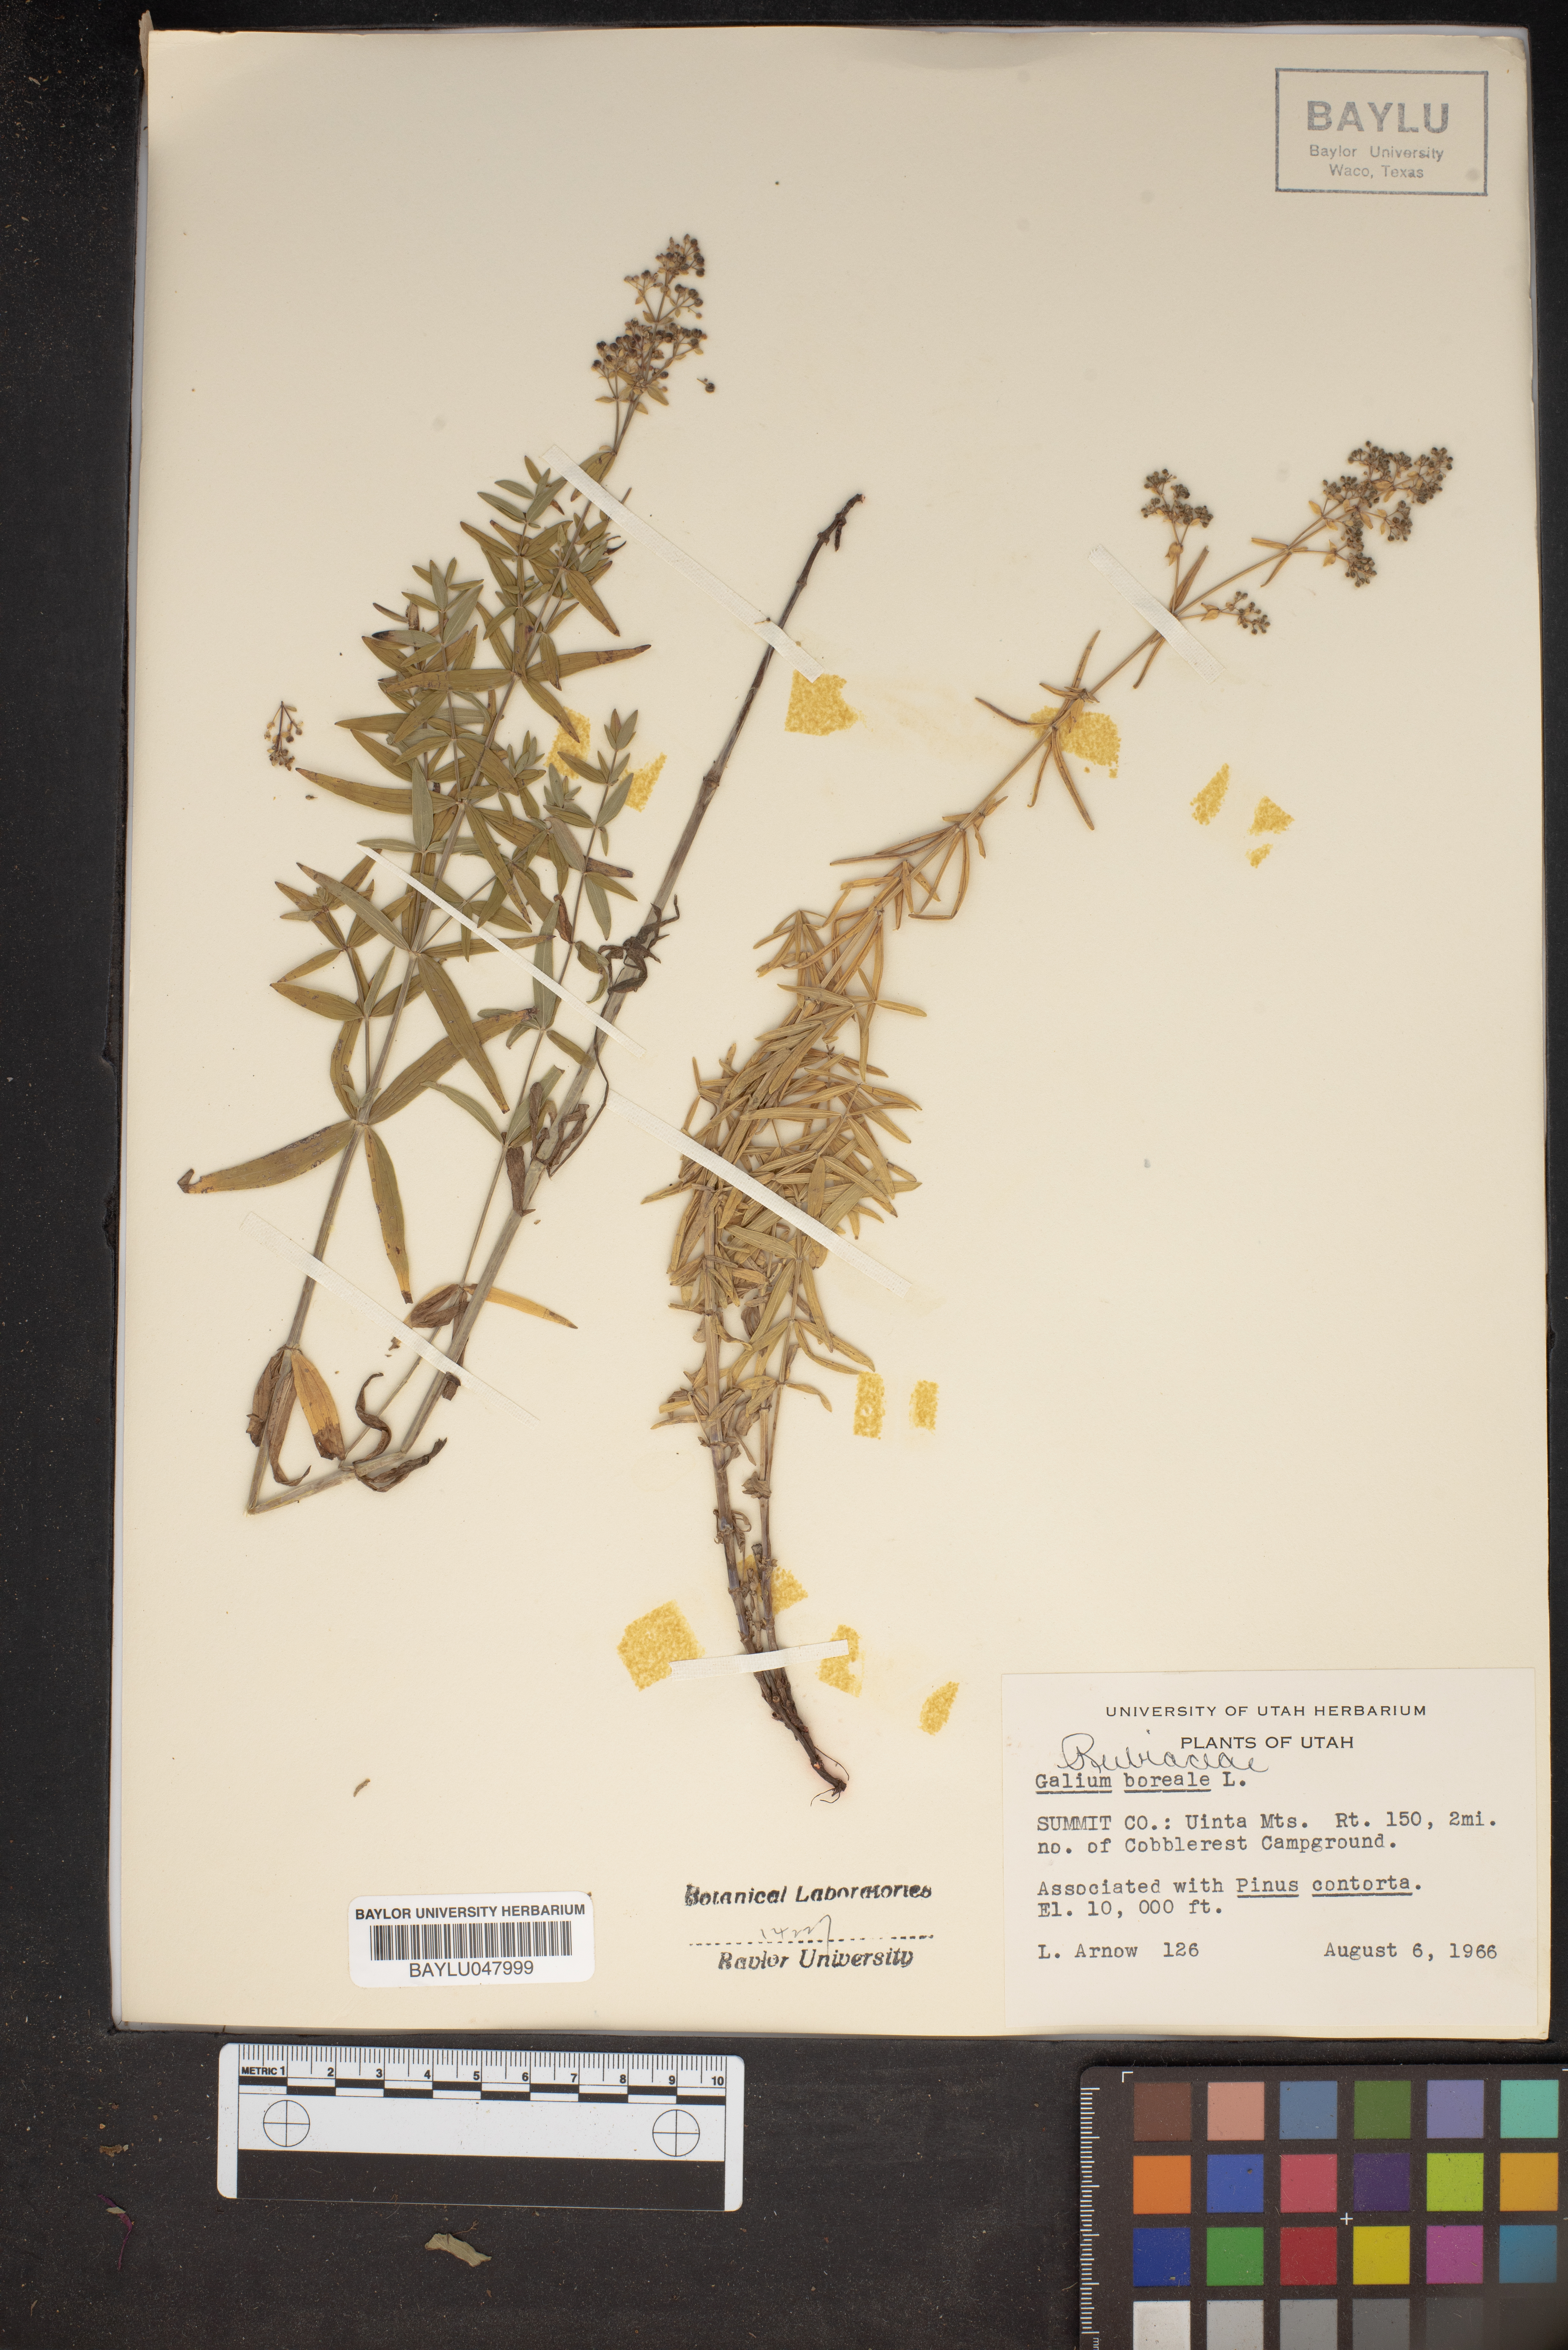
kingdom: Plantae
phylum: Tracheophyta
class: Magnoliopsida
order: Gentianales
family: Rubiaceae
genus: Galium
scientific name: Galium boreale
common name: Northern bedstraw
